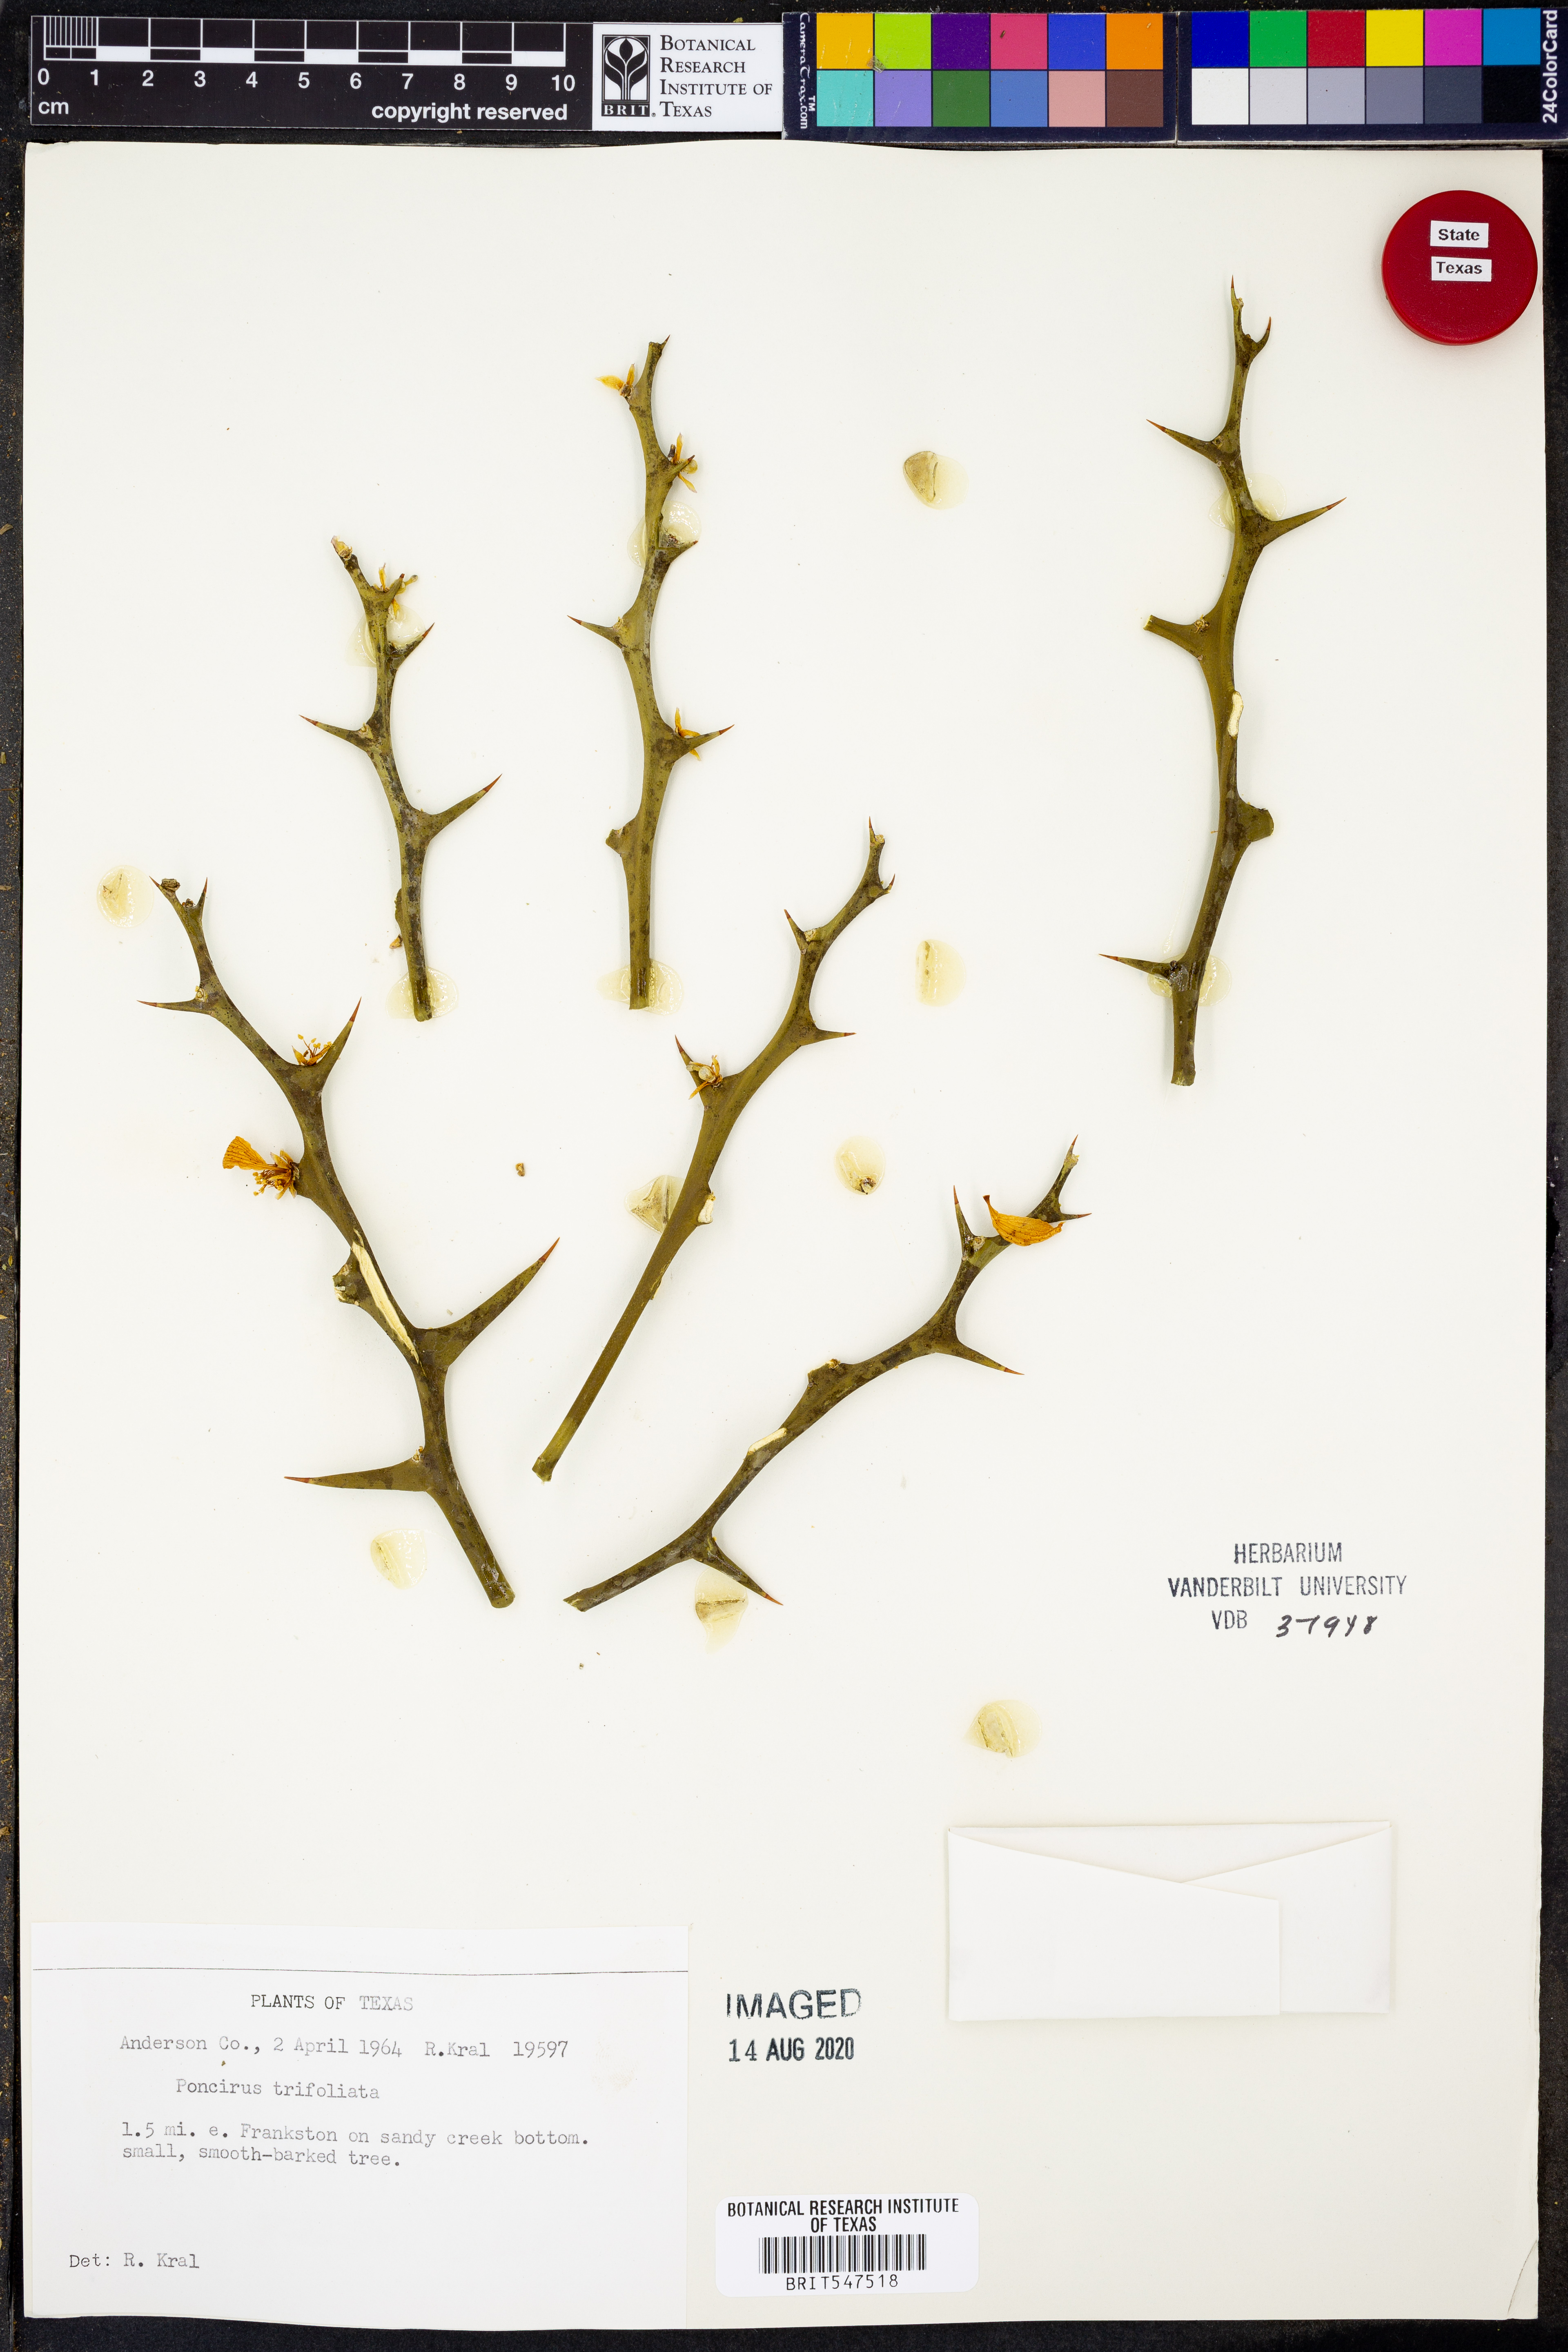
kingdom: Plantae
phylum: Tracheophyta
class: Magnoliopsida
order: Sapindales
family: Rutaceae
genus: Citrus
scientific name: Citrus trifoliata
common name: Japanese bitter-orange
